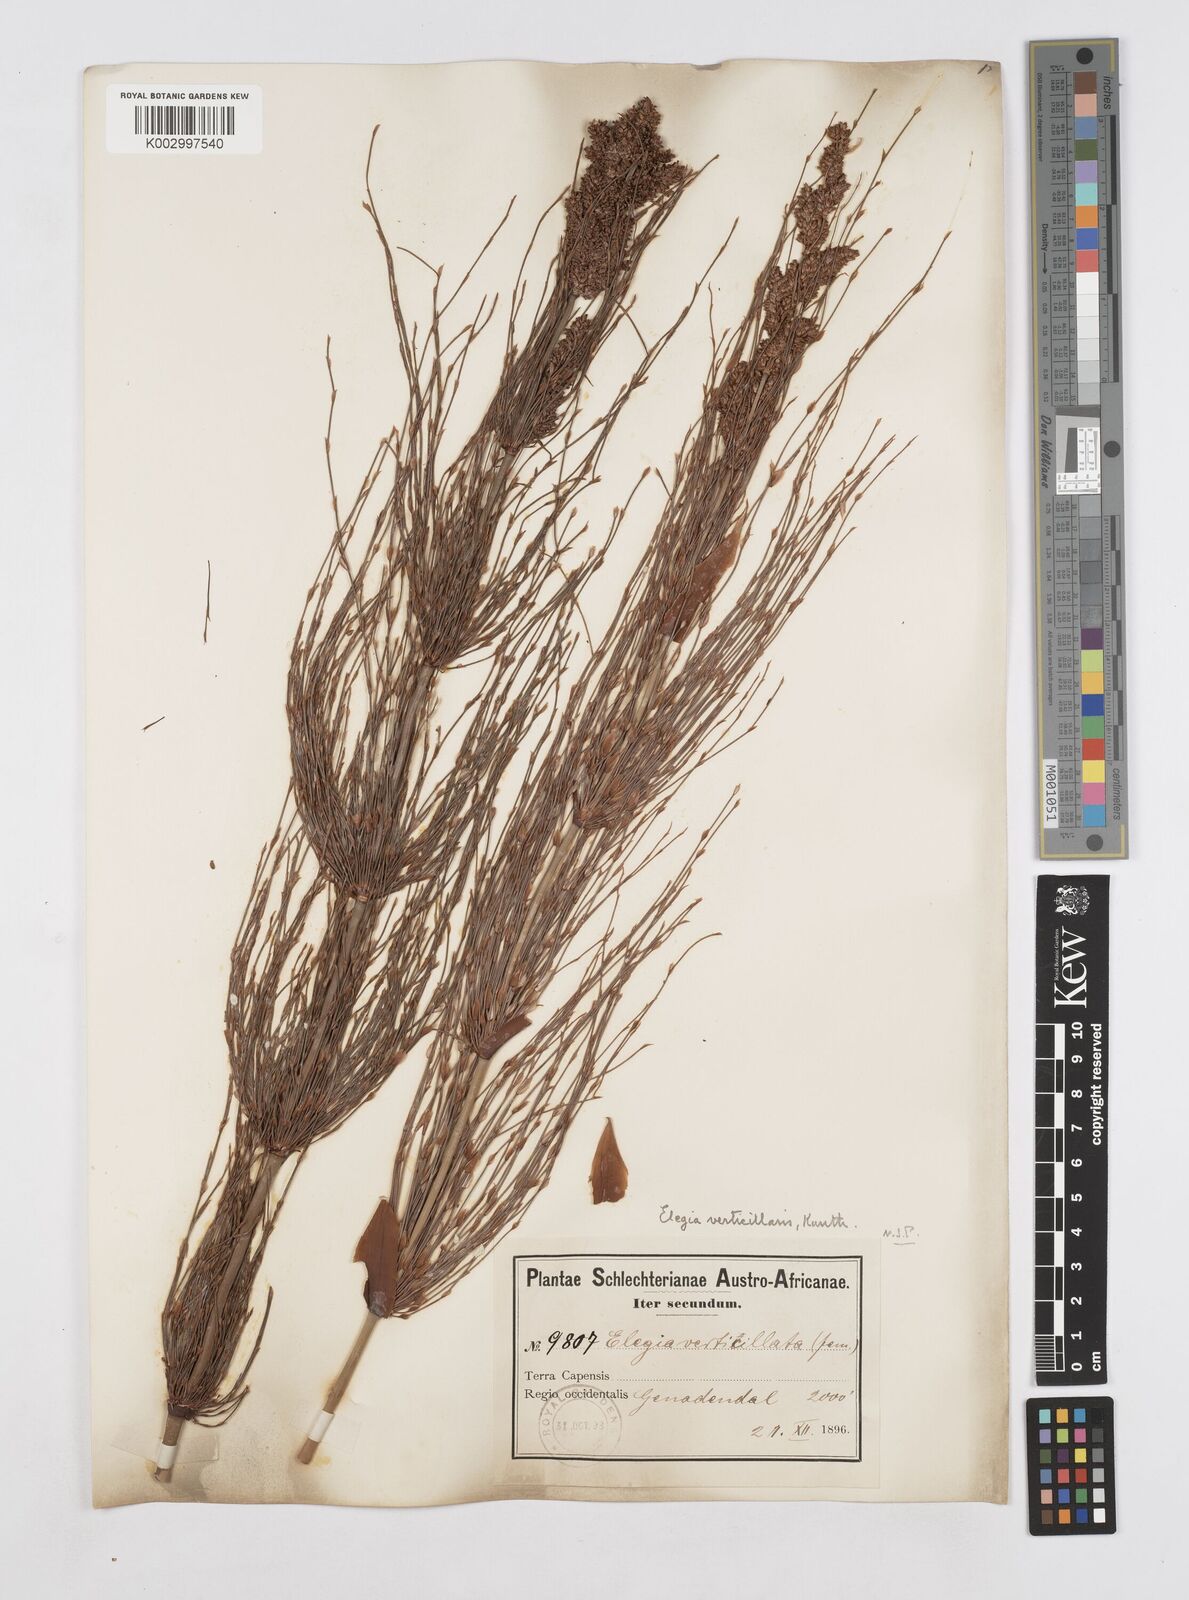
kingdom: Plantae
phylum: Tracheophyta
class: Liliopsida
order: Poales
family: Restionaceae
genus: Elegia
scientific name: Elegia capensis
